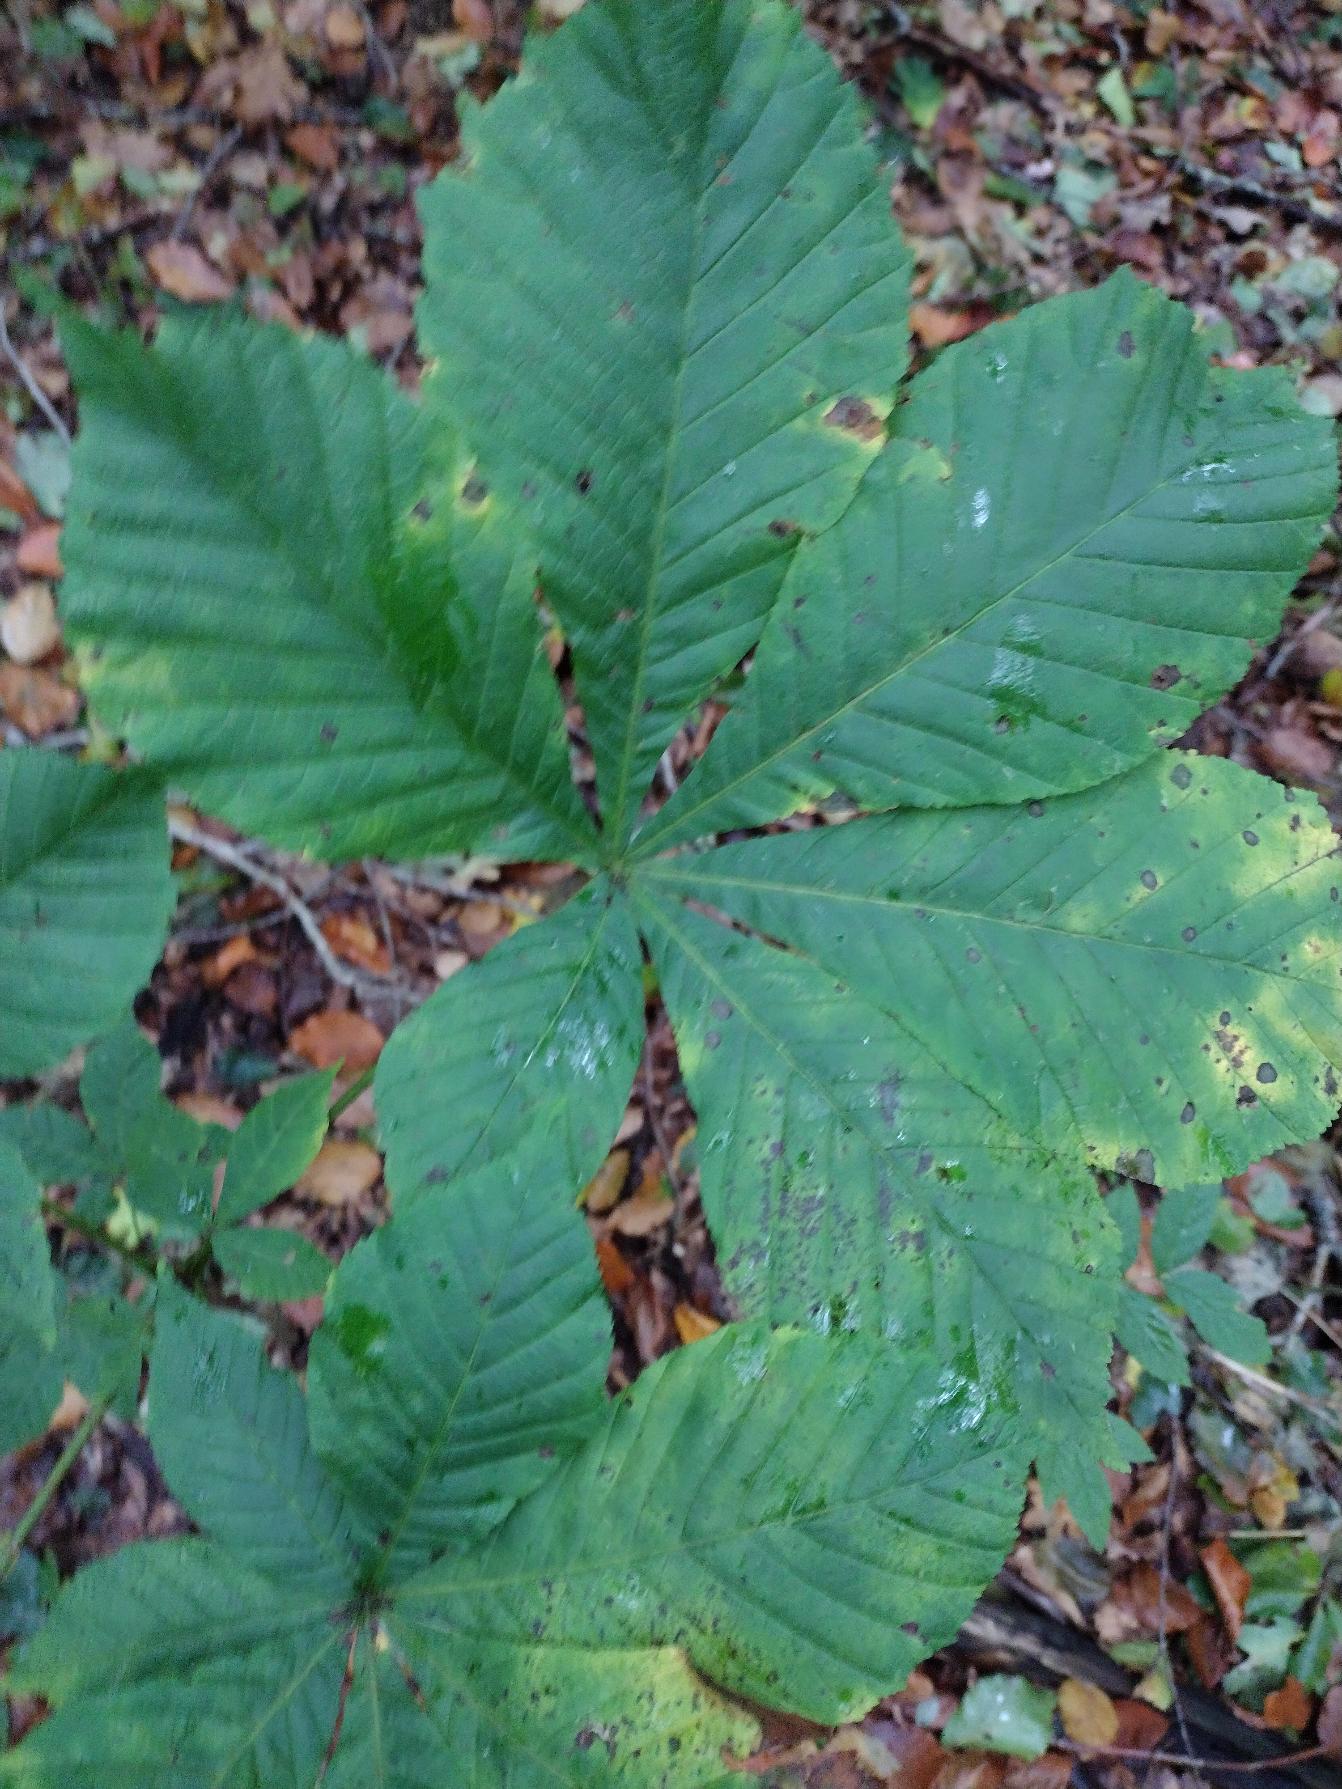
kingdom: Plantae
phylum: Tracheophyta
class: Magnoliopsida
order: Sapindales
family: Sapindaceae
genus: Aesculus
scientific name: Aesculus hippocastanum
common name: Hestekastanie
